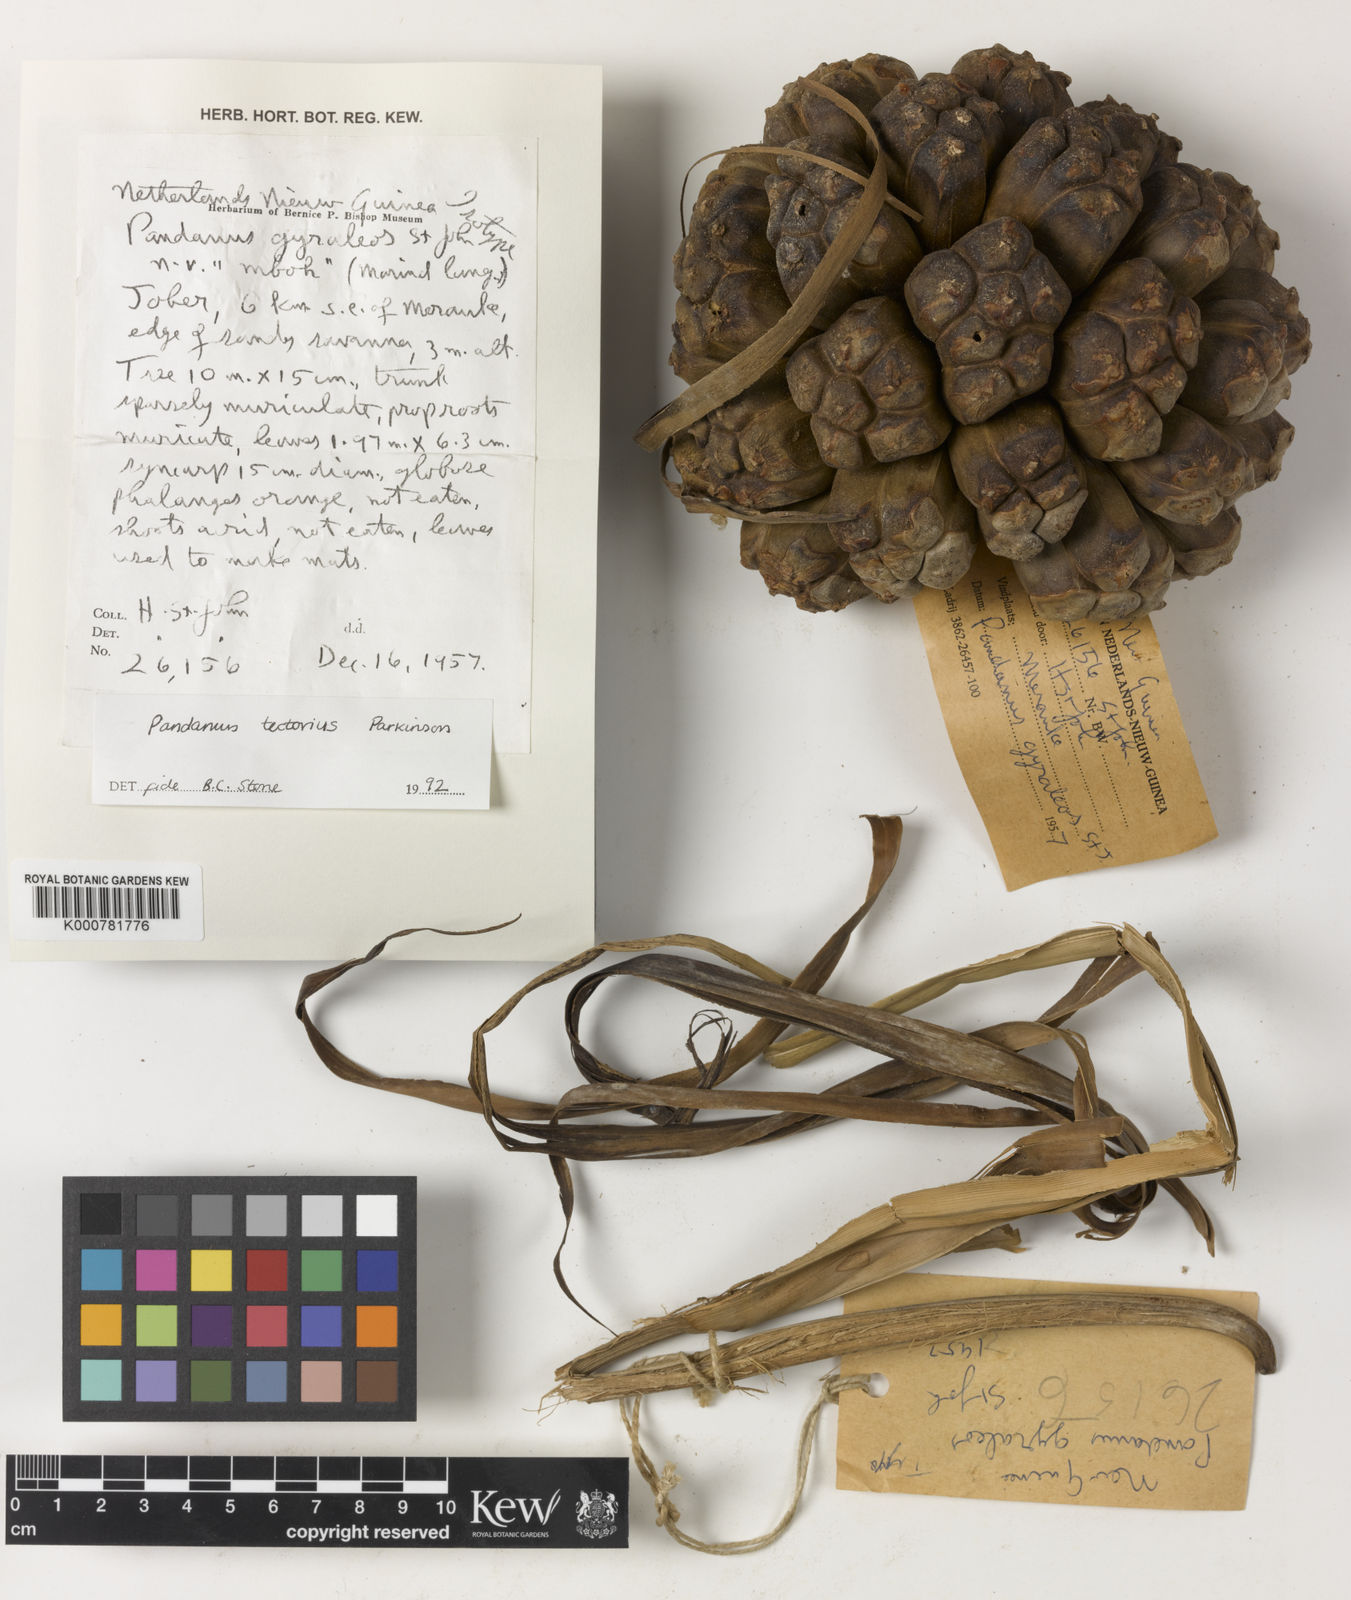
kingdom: Plantae
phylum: Tracheophyta
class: Liliopsida
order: Pandanales
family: Pandanaceae
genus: Pandanus
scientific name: Pandanus
